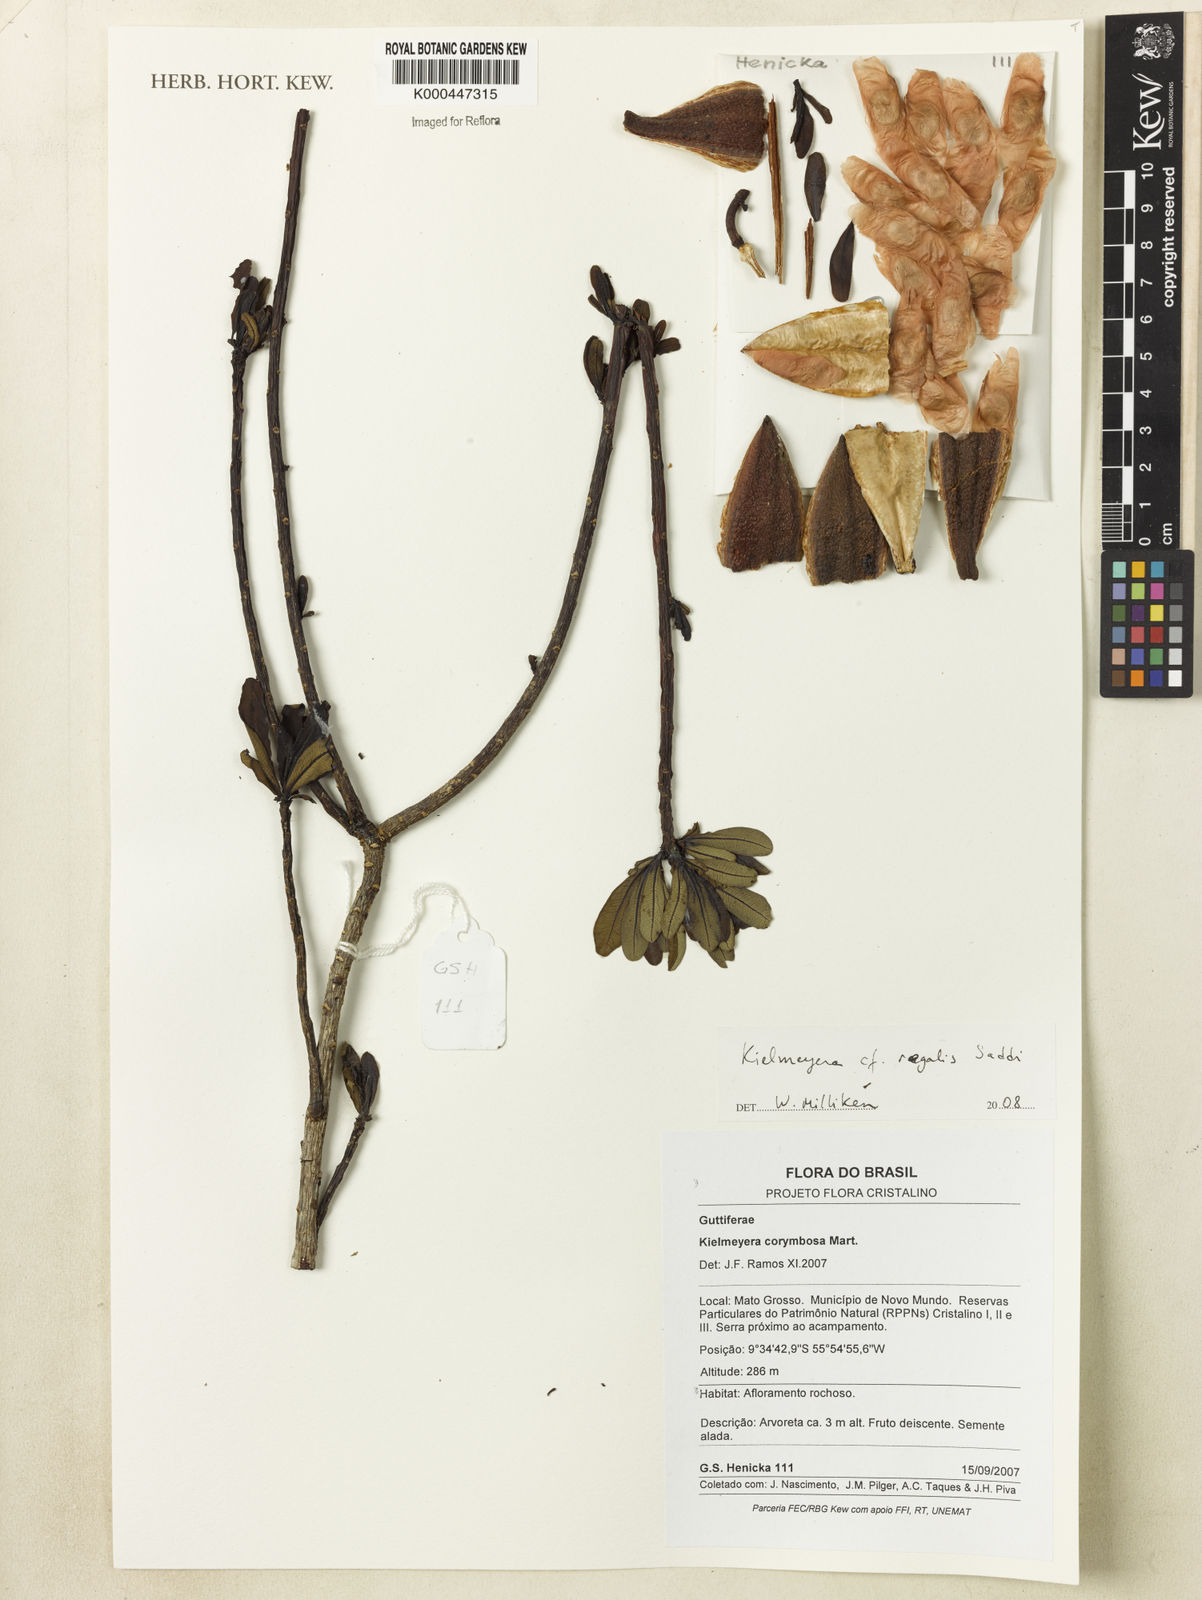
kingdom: Plantae
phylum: Tracheophyta
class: Magnoliopsida
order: Malpighiales
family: Calophyllaceae
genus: Kielmeyera
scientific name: Kielmeyera regalis
